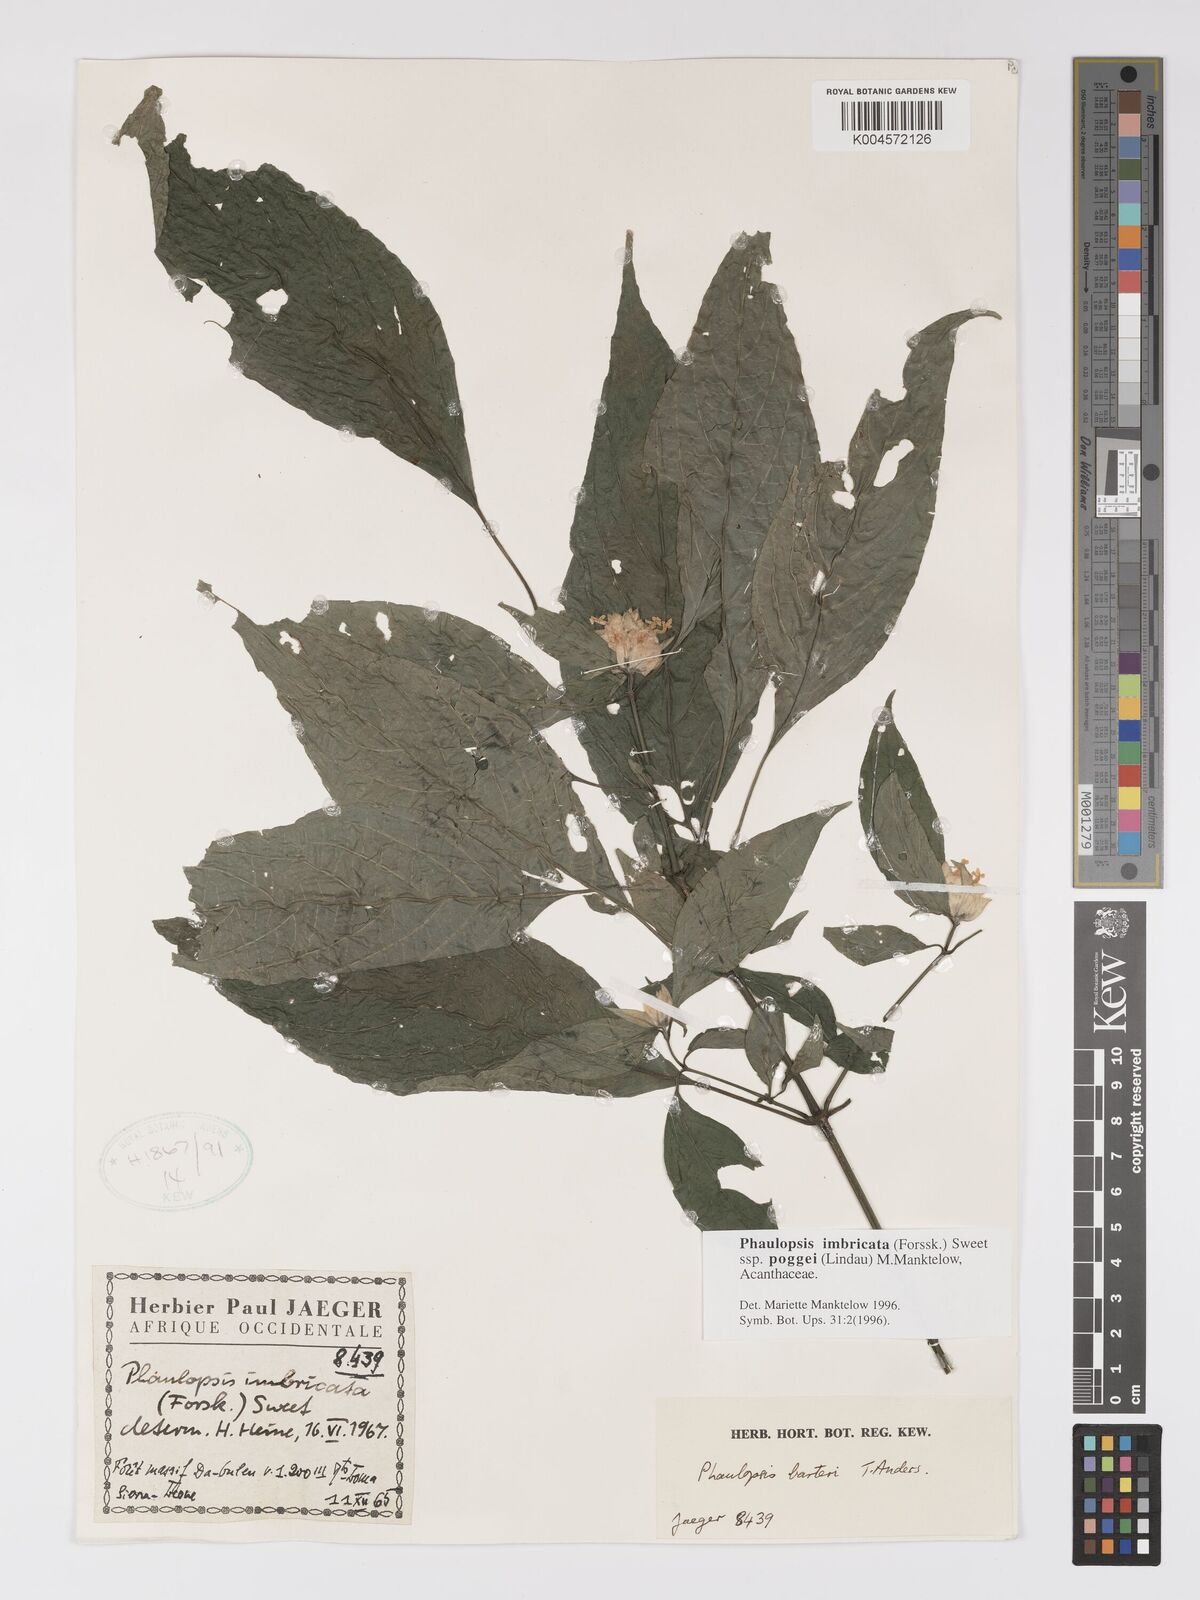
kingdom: Plantae
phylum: Tracheophyta
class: Magnoliopsida
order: Lamiales
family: Acanthaceae
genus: Phaulopsis
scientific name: Phaulopsis imbricata
